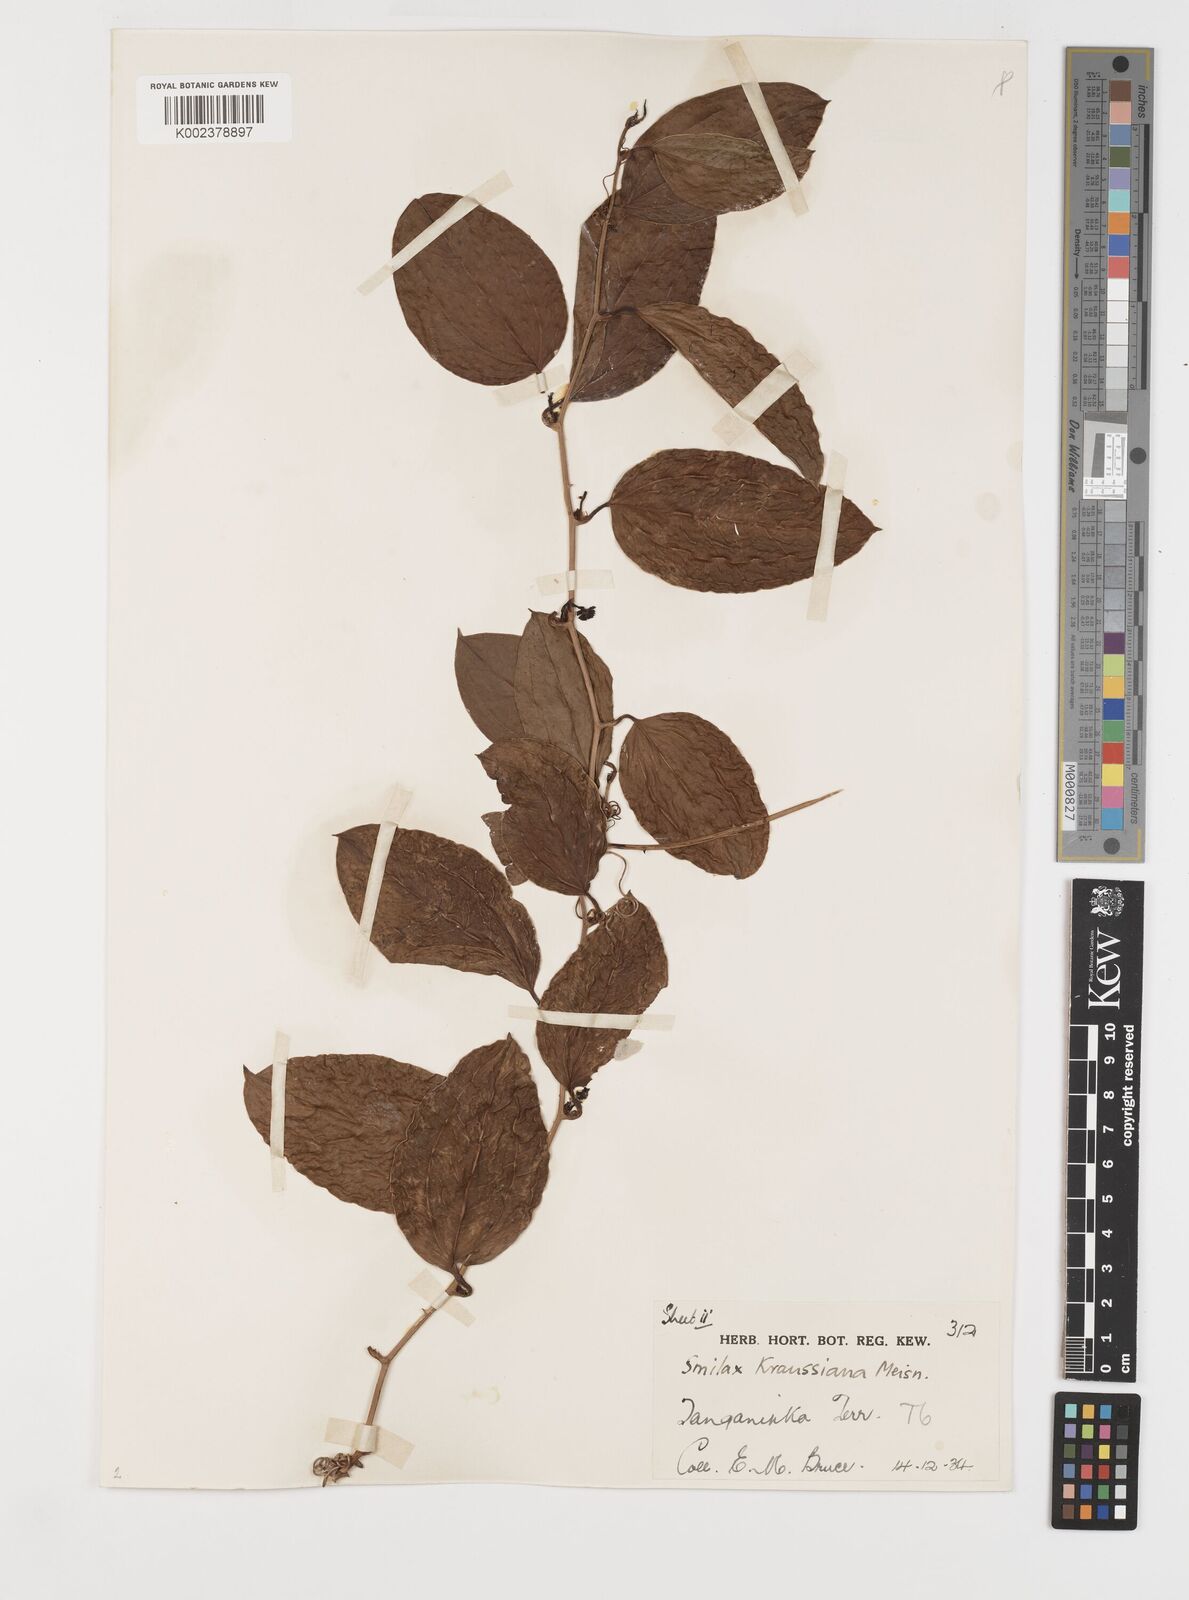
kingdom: Plantae
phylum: Tracheophyta
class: Liliopsida
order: Liliales
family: Smilacaceae
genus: Smilax
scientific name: Smilax anceps
